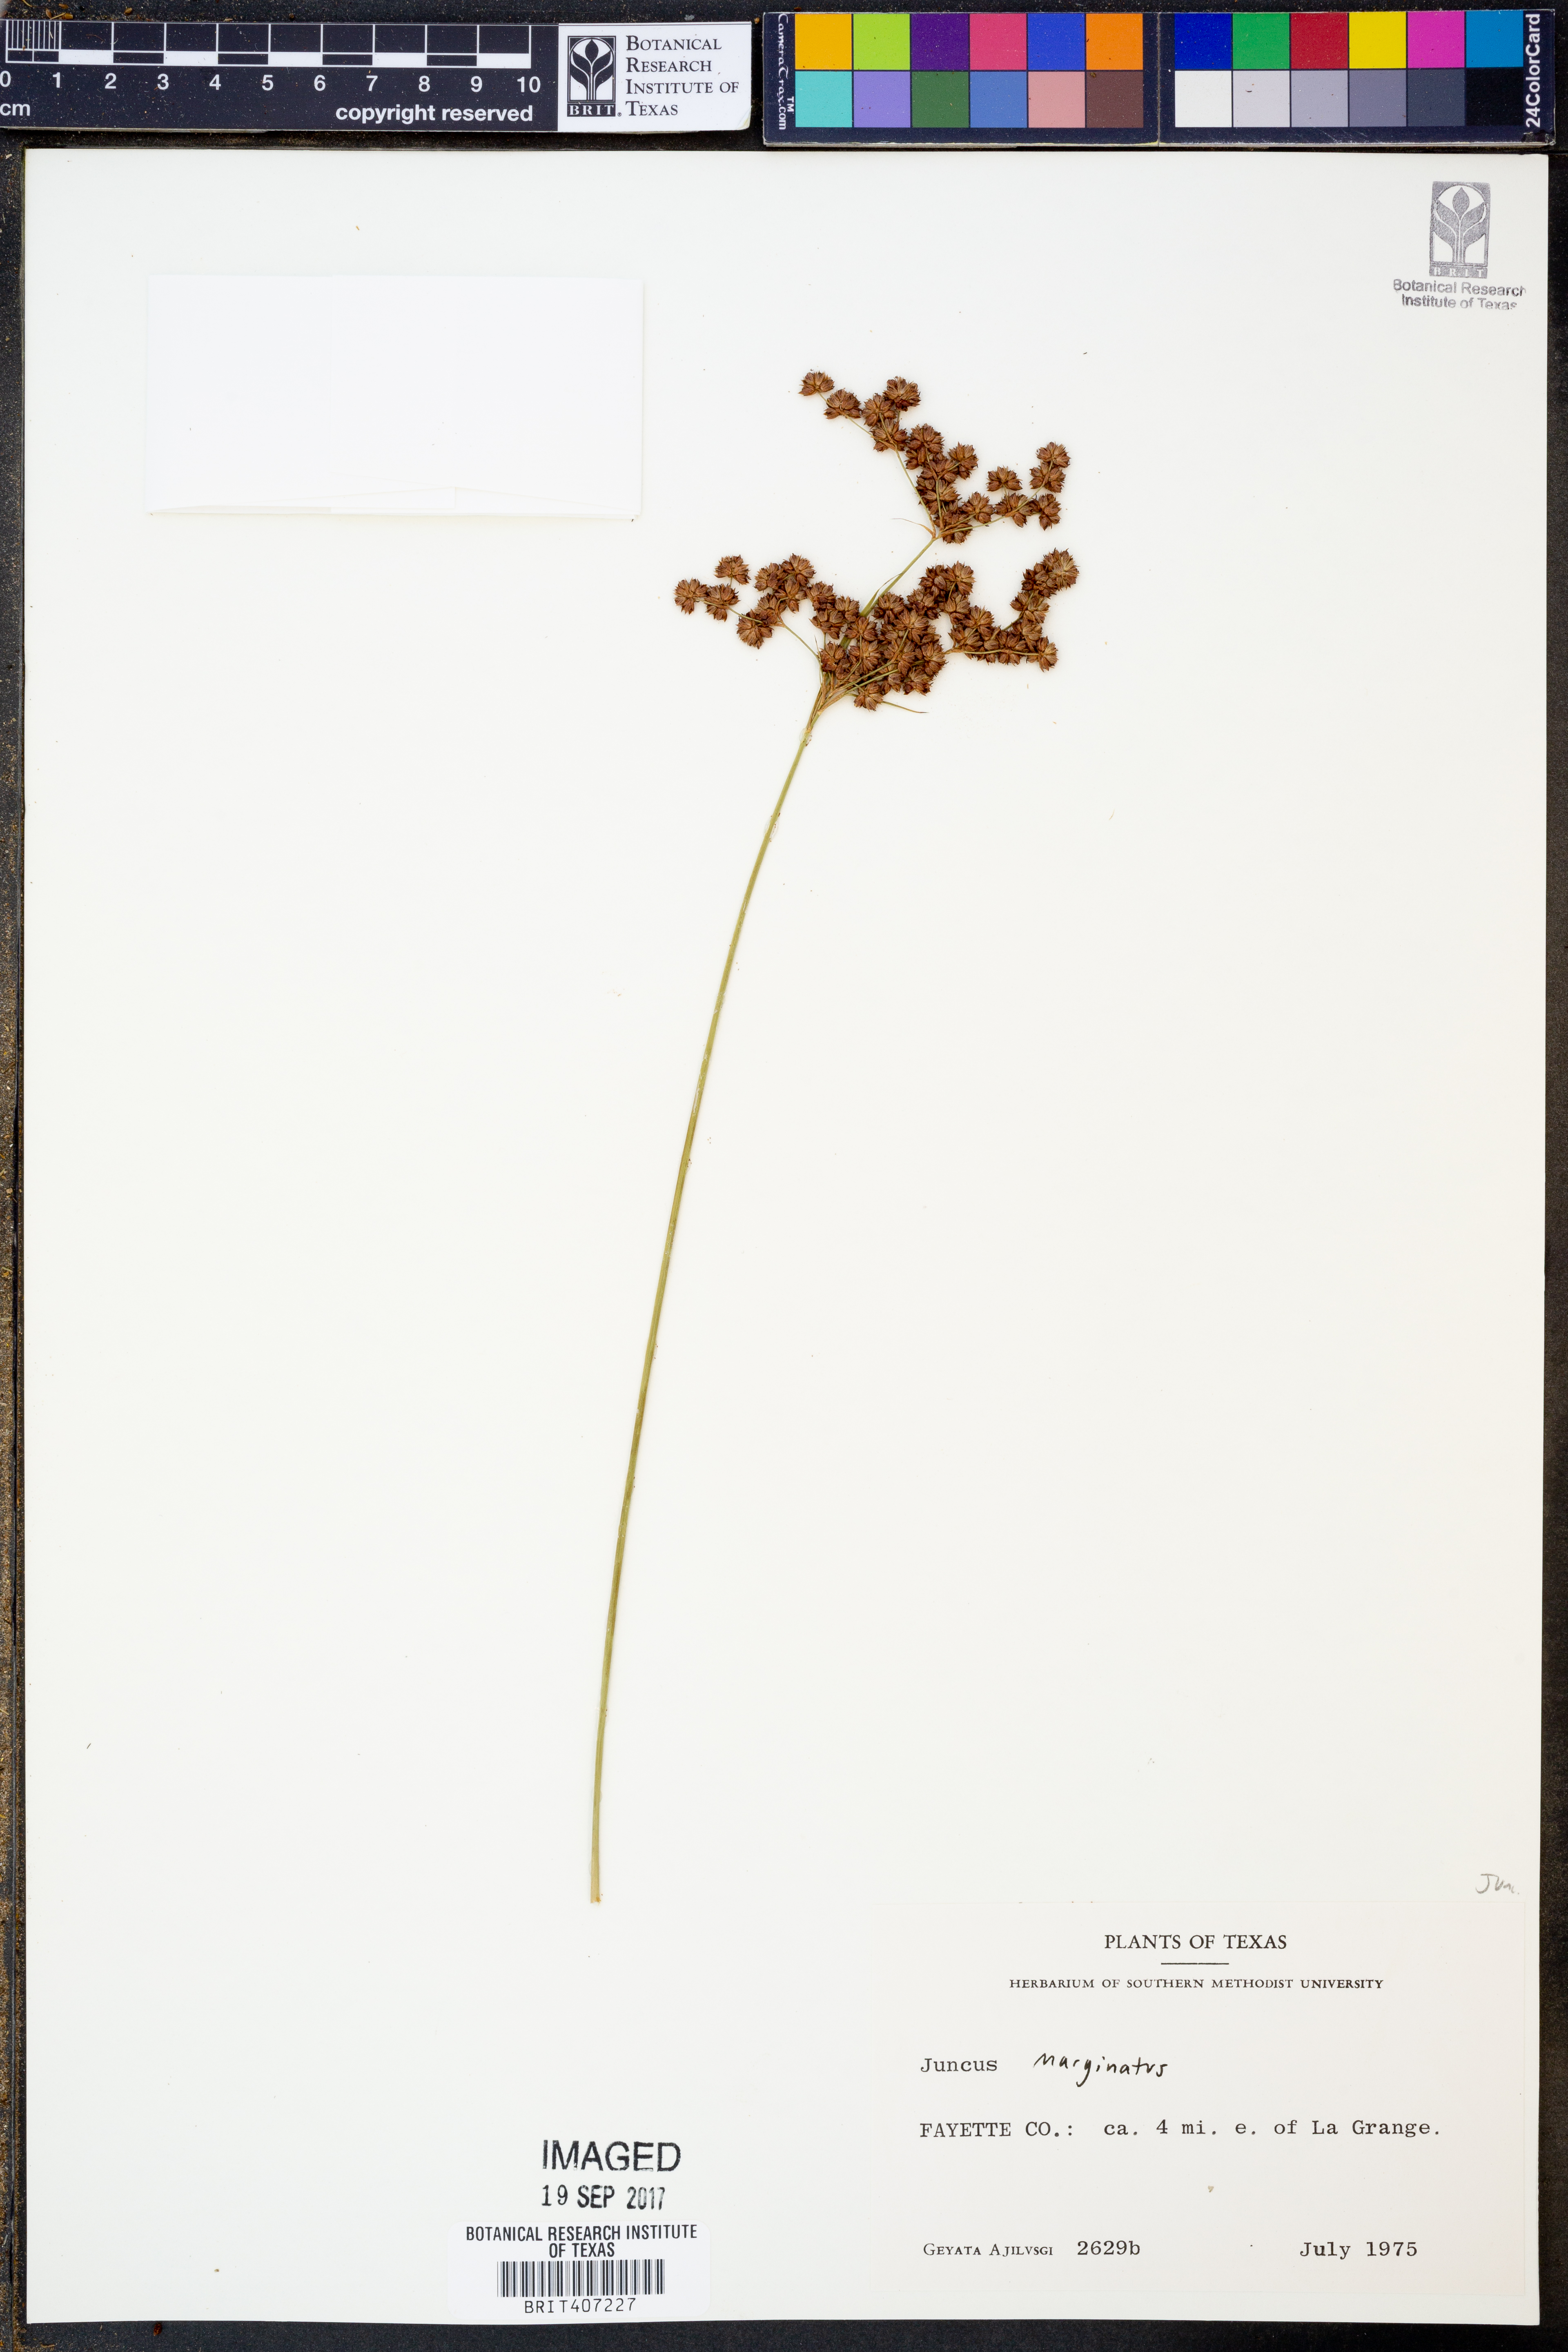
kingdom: Plantae
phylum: Tracheophyta
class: Liliopsida
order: Poales
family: Juncaceae
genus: Juncus
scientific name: Juncus marginatus
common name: Grass-leaf rush
